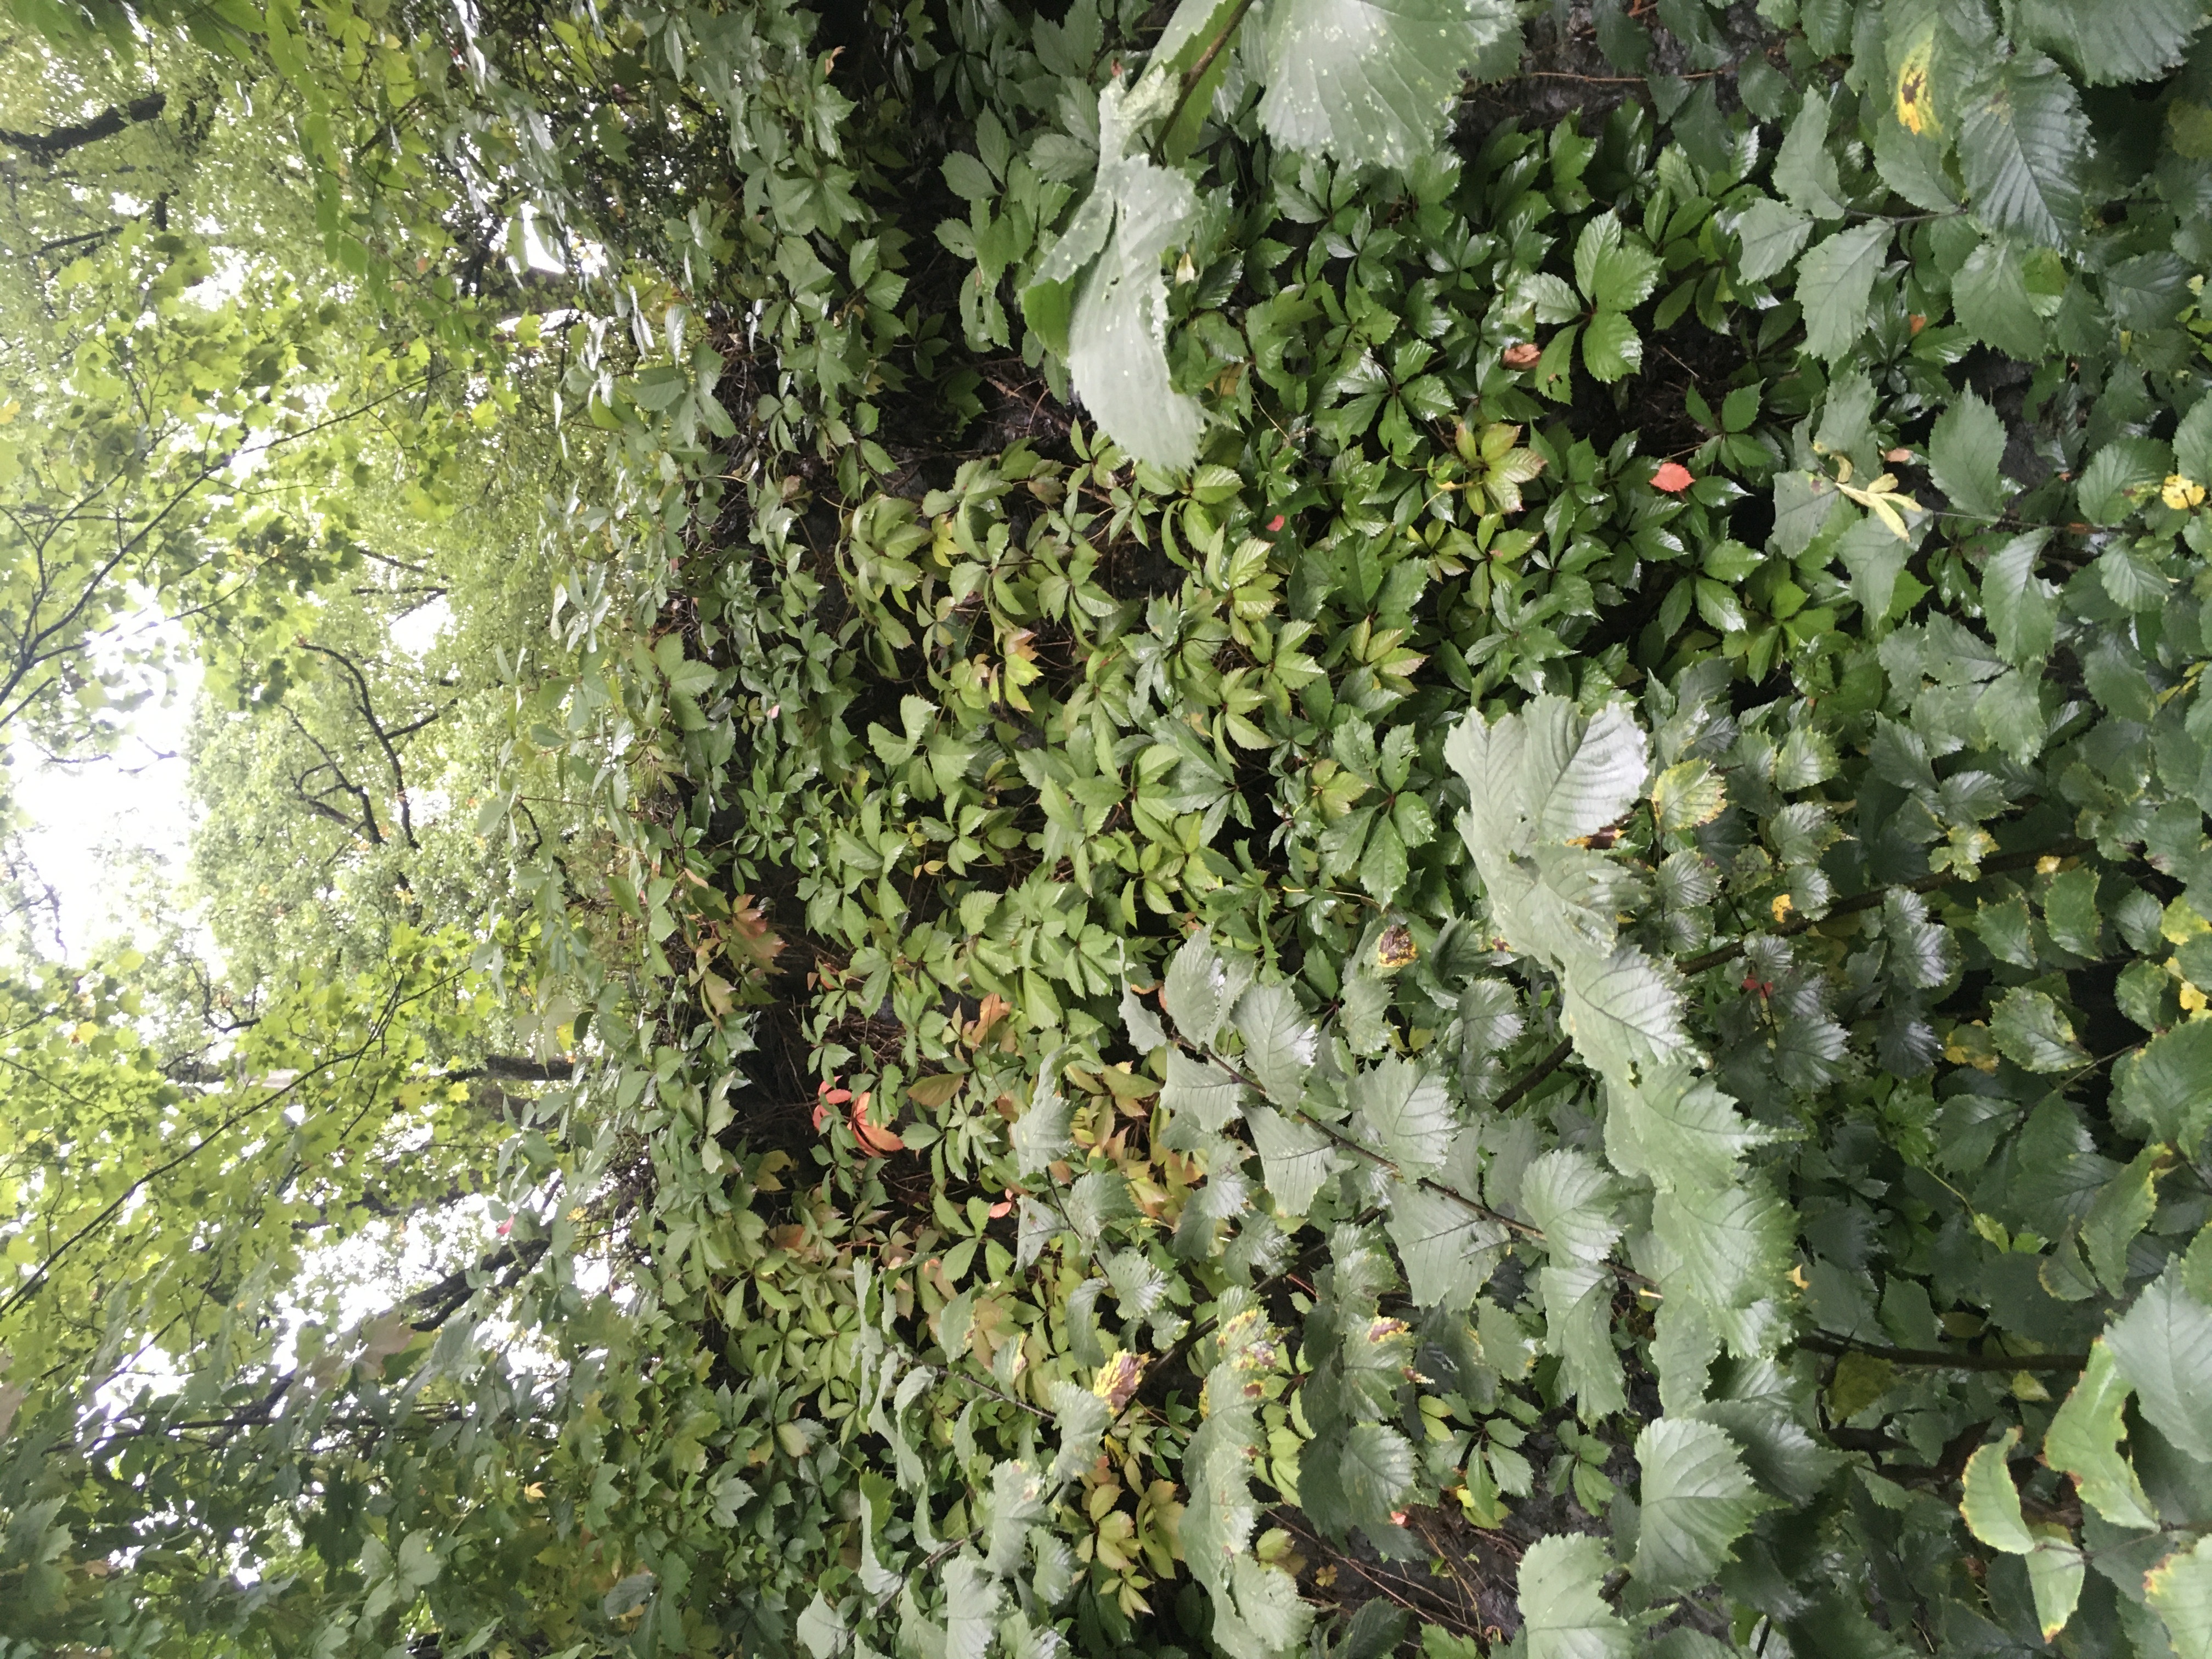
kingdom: Plantae
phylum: Tracheophyta
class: Magnoliopsida
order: Vitales
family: Vitaceae
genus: Parthenocissus
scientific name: Parthenocissus quinquefolia
